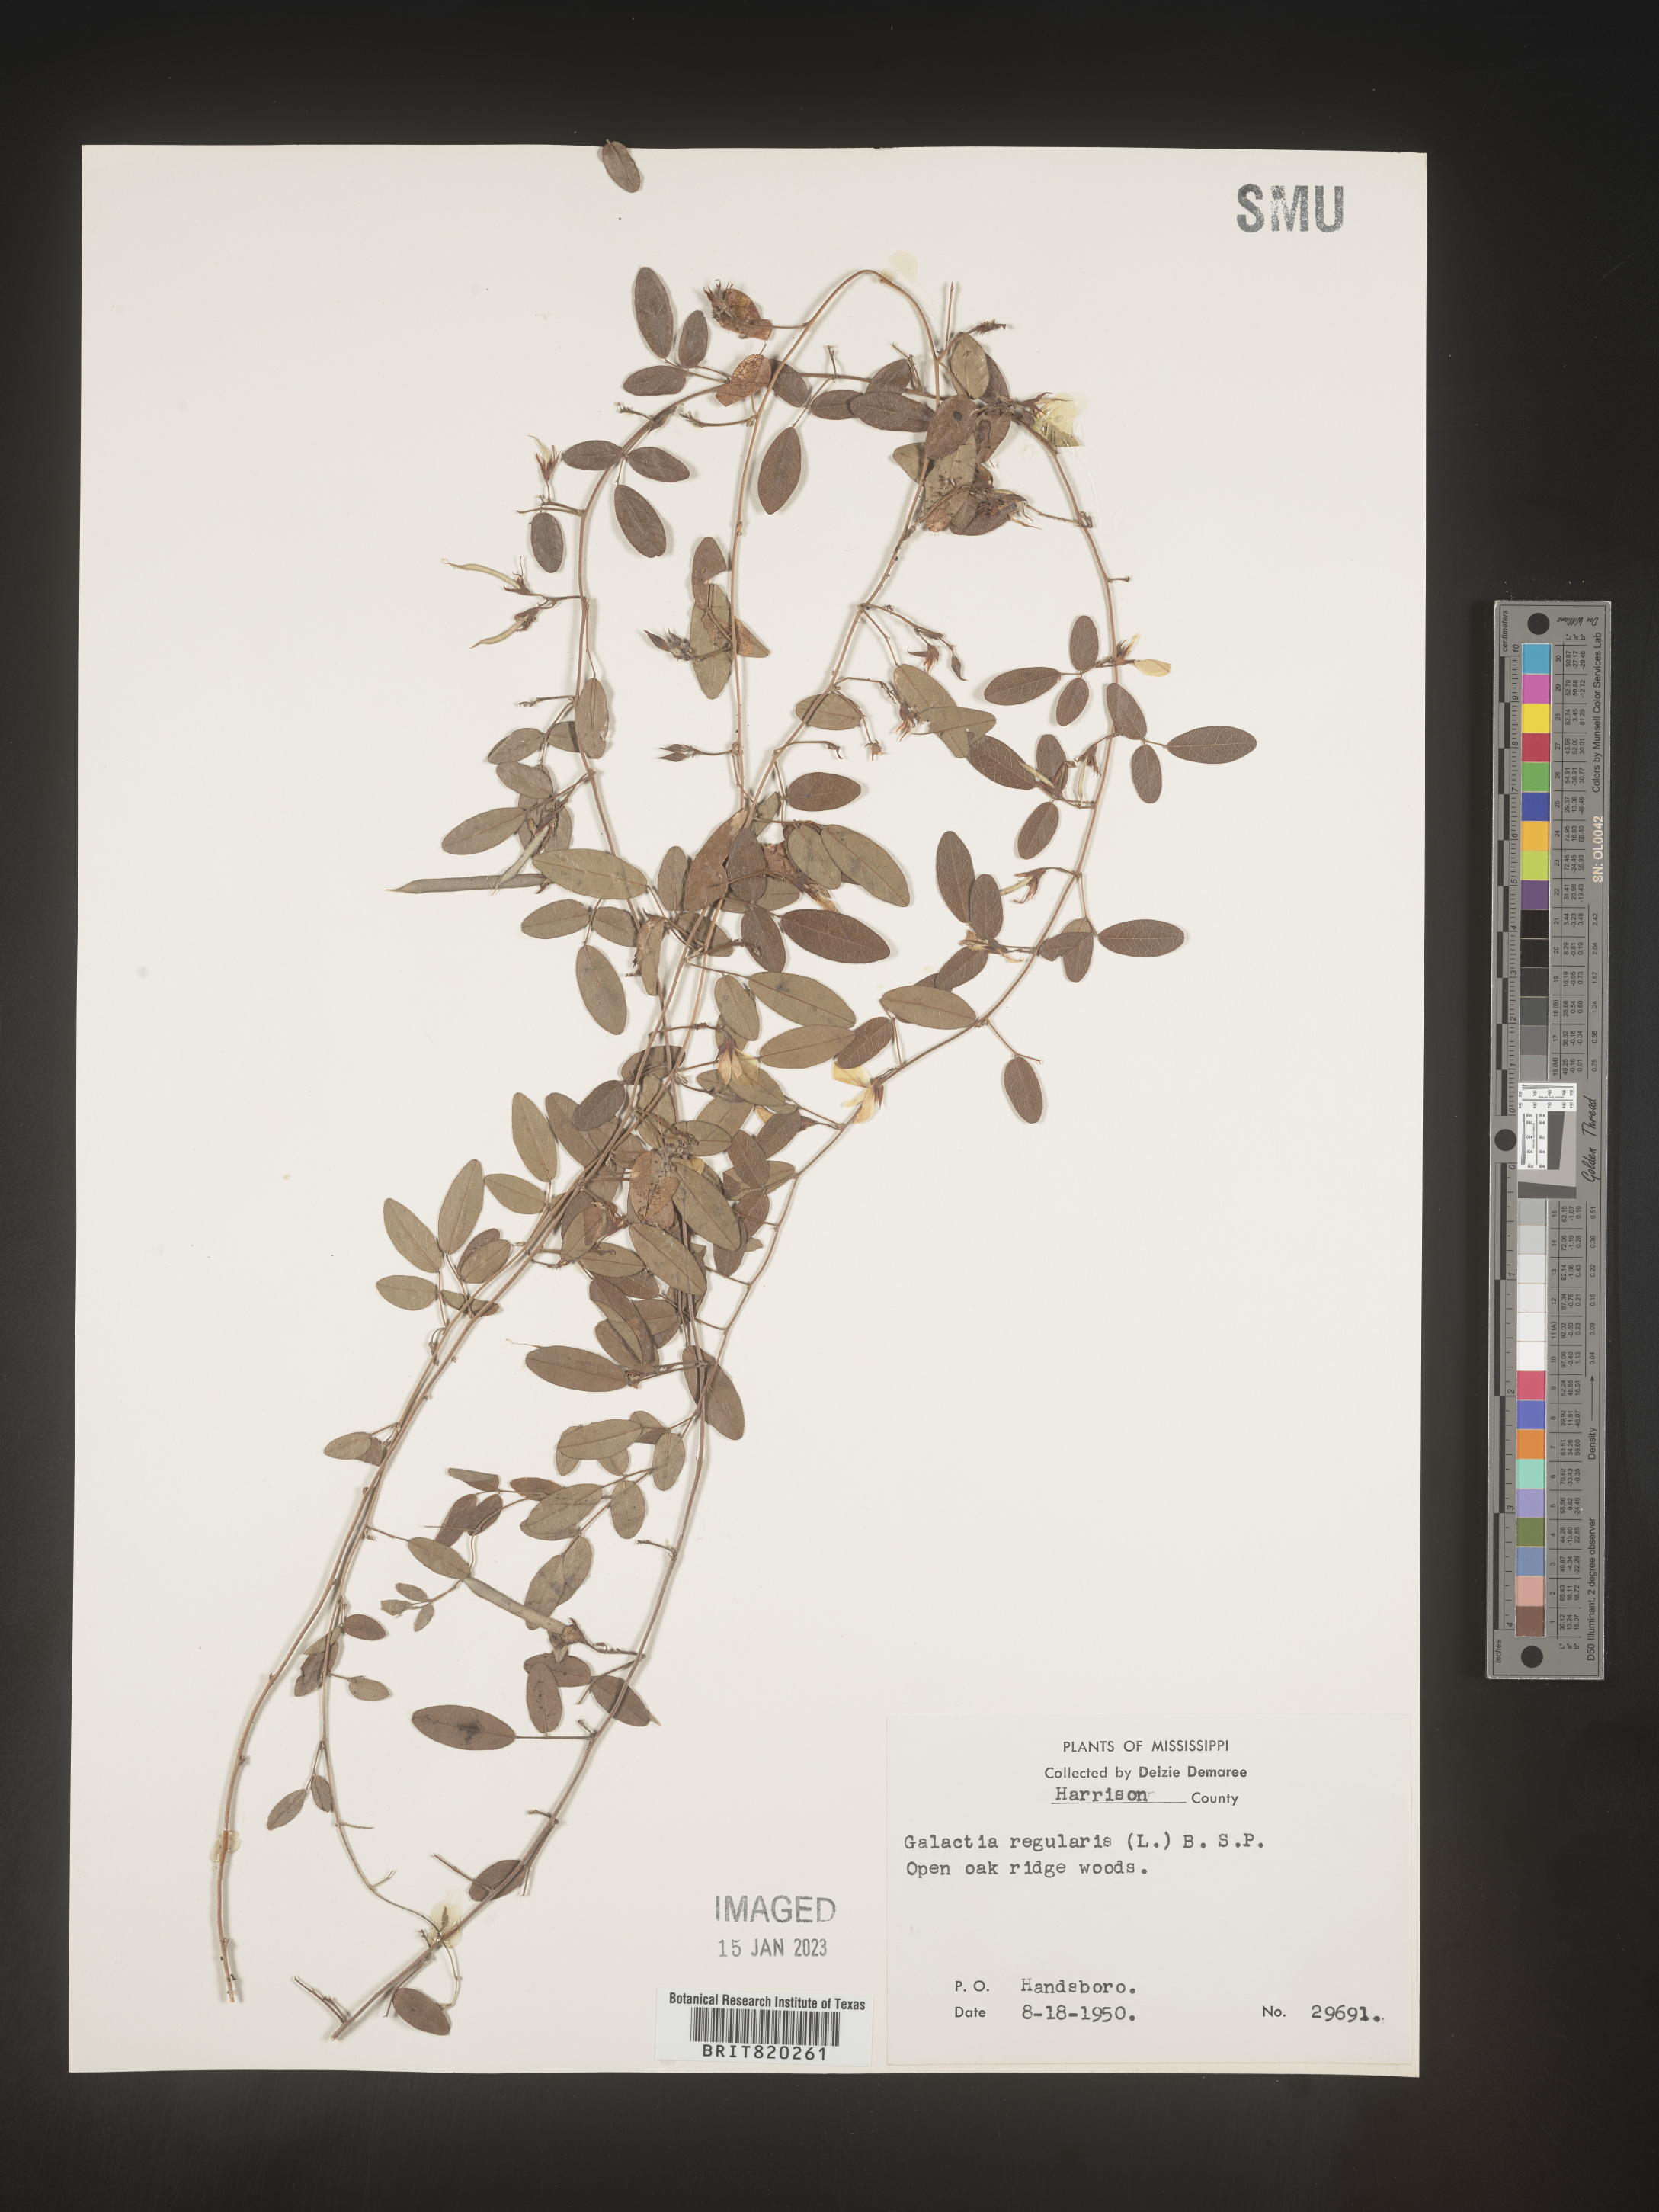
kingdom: Plantae
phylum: Tracheophyta
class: Magnoliopsida
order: Fabales
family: Fabaceae
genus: Galactia
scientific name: Galactia microphylla
